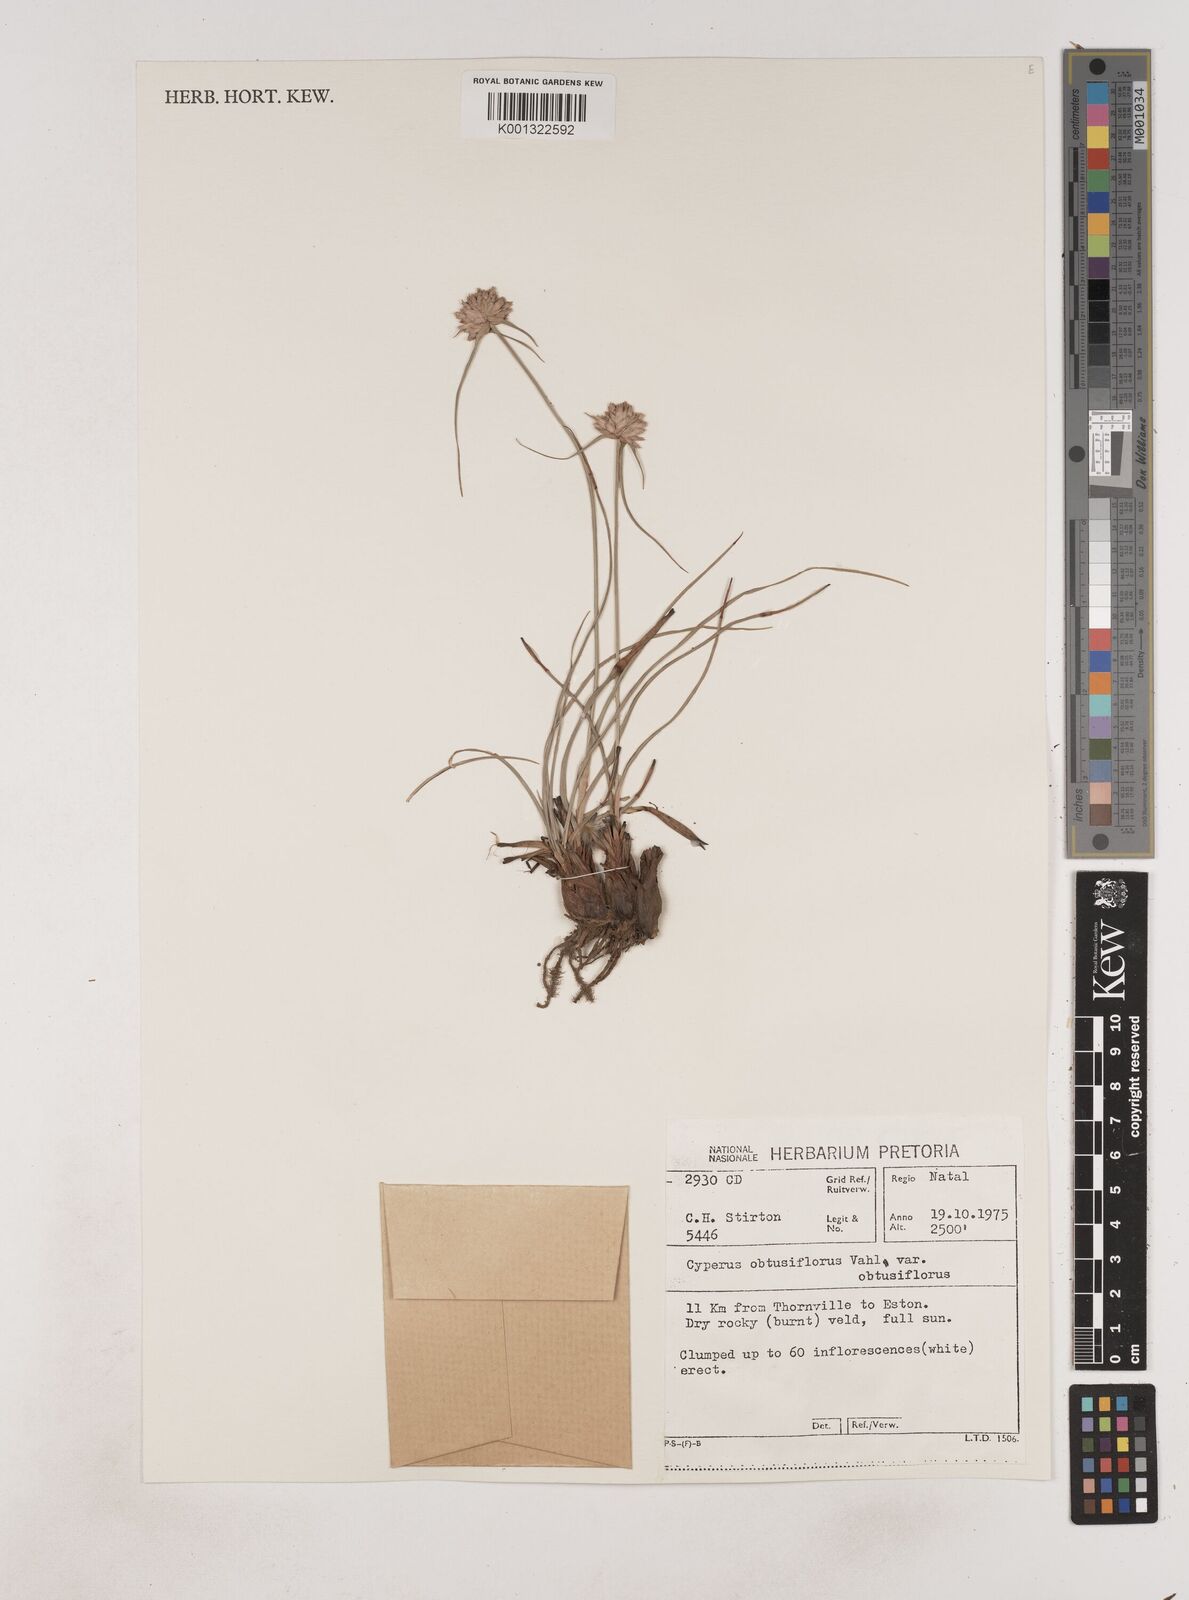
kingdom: Plantae
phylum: Tracheophyta
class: Liliopsida
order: Poales
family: Cyperaceae
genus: Cyperus
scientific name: Cyperus niveus
